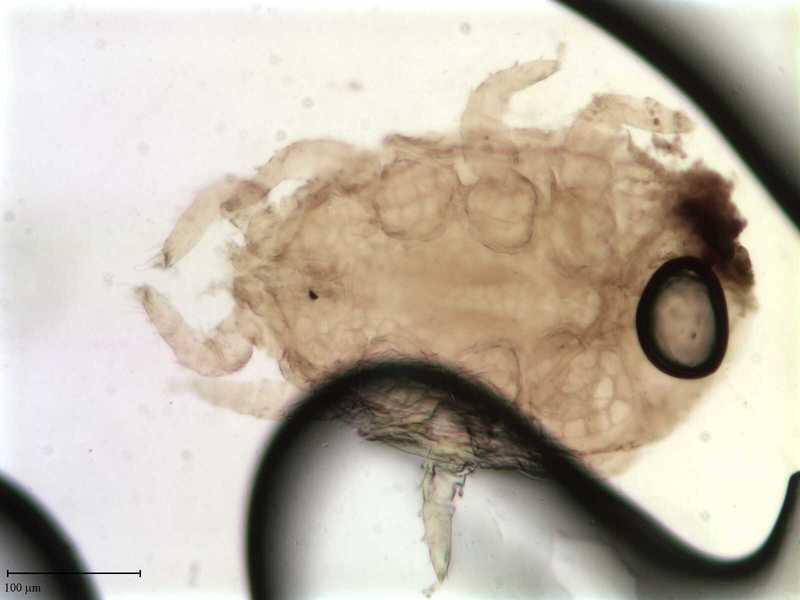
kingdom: Animalia
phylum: Arthropoda
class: Arachnida
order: Mesostigmata
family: Uropodidae
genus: Uroobovella
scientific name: Uroobovella marginata
